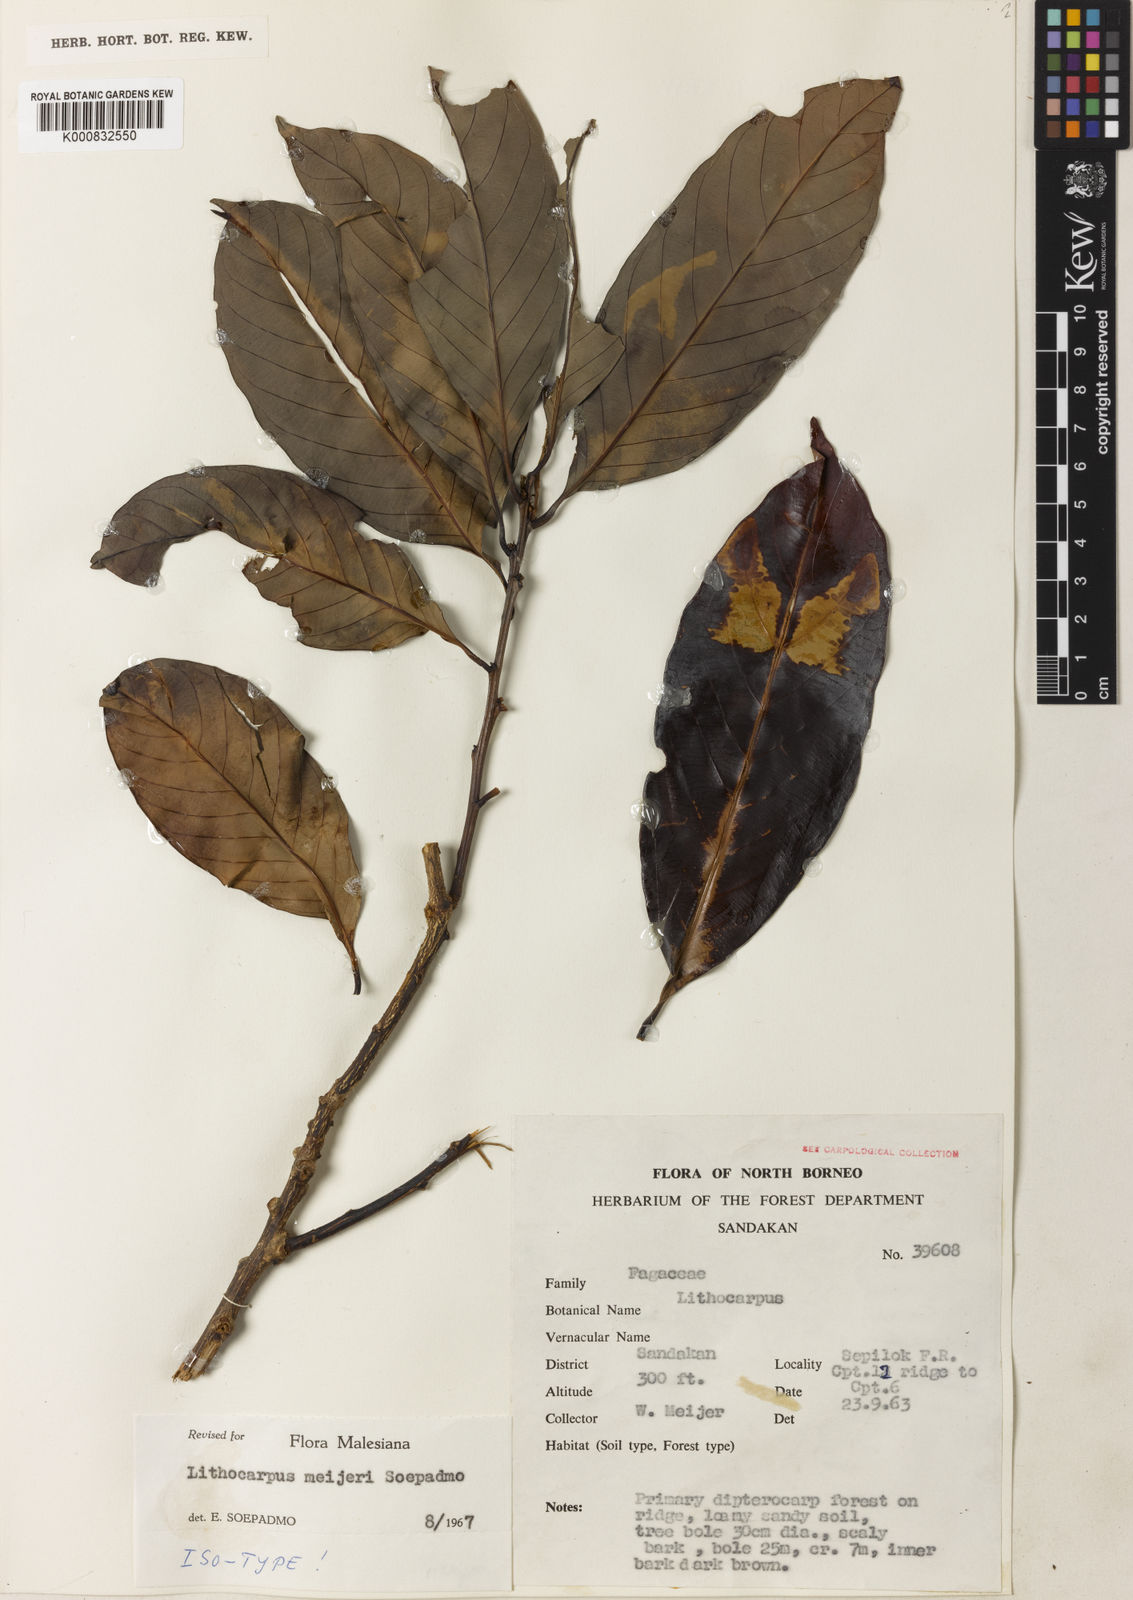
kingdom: Plantae
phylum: Tracheophyta
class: Magnoliopsida
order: Fagales
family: Fagaceae
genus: Lithocarpus
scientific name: Lithocarpus meijeri
